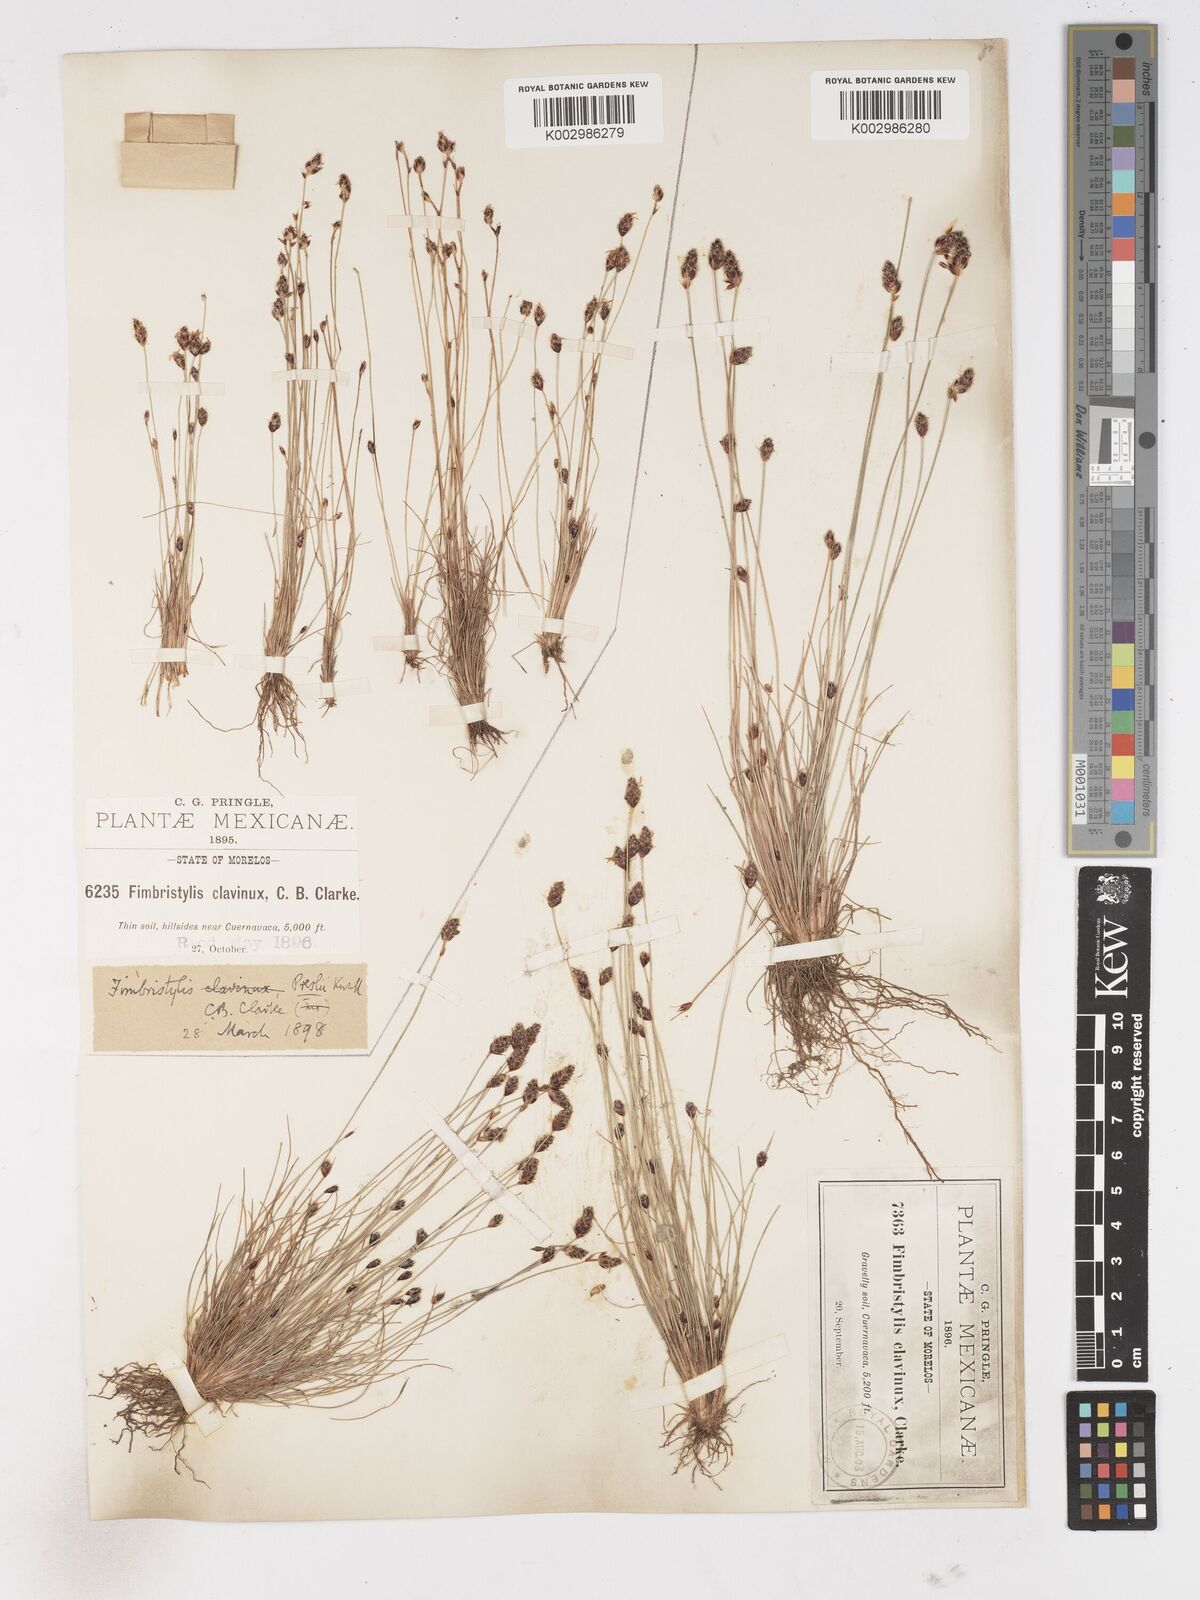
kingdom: Plantae
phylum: Tracheophyta
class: Liliopsida
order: Poales
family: Cyperaceae
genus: Bulbostylis
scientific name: Bulbostylis pubescens
